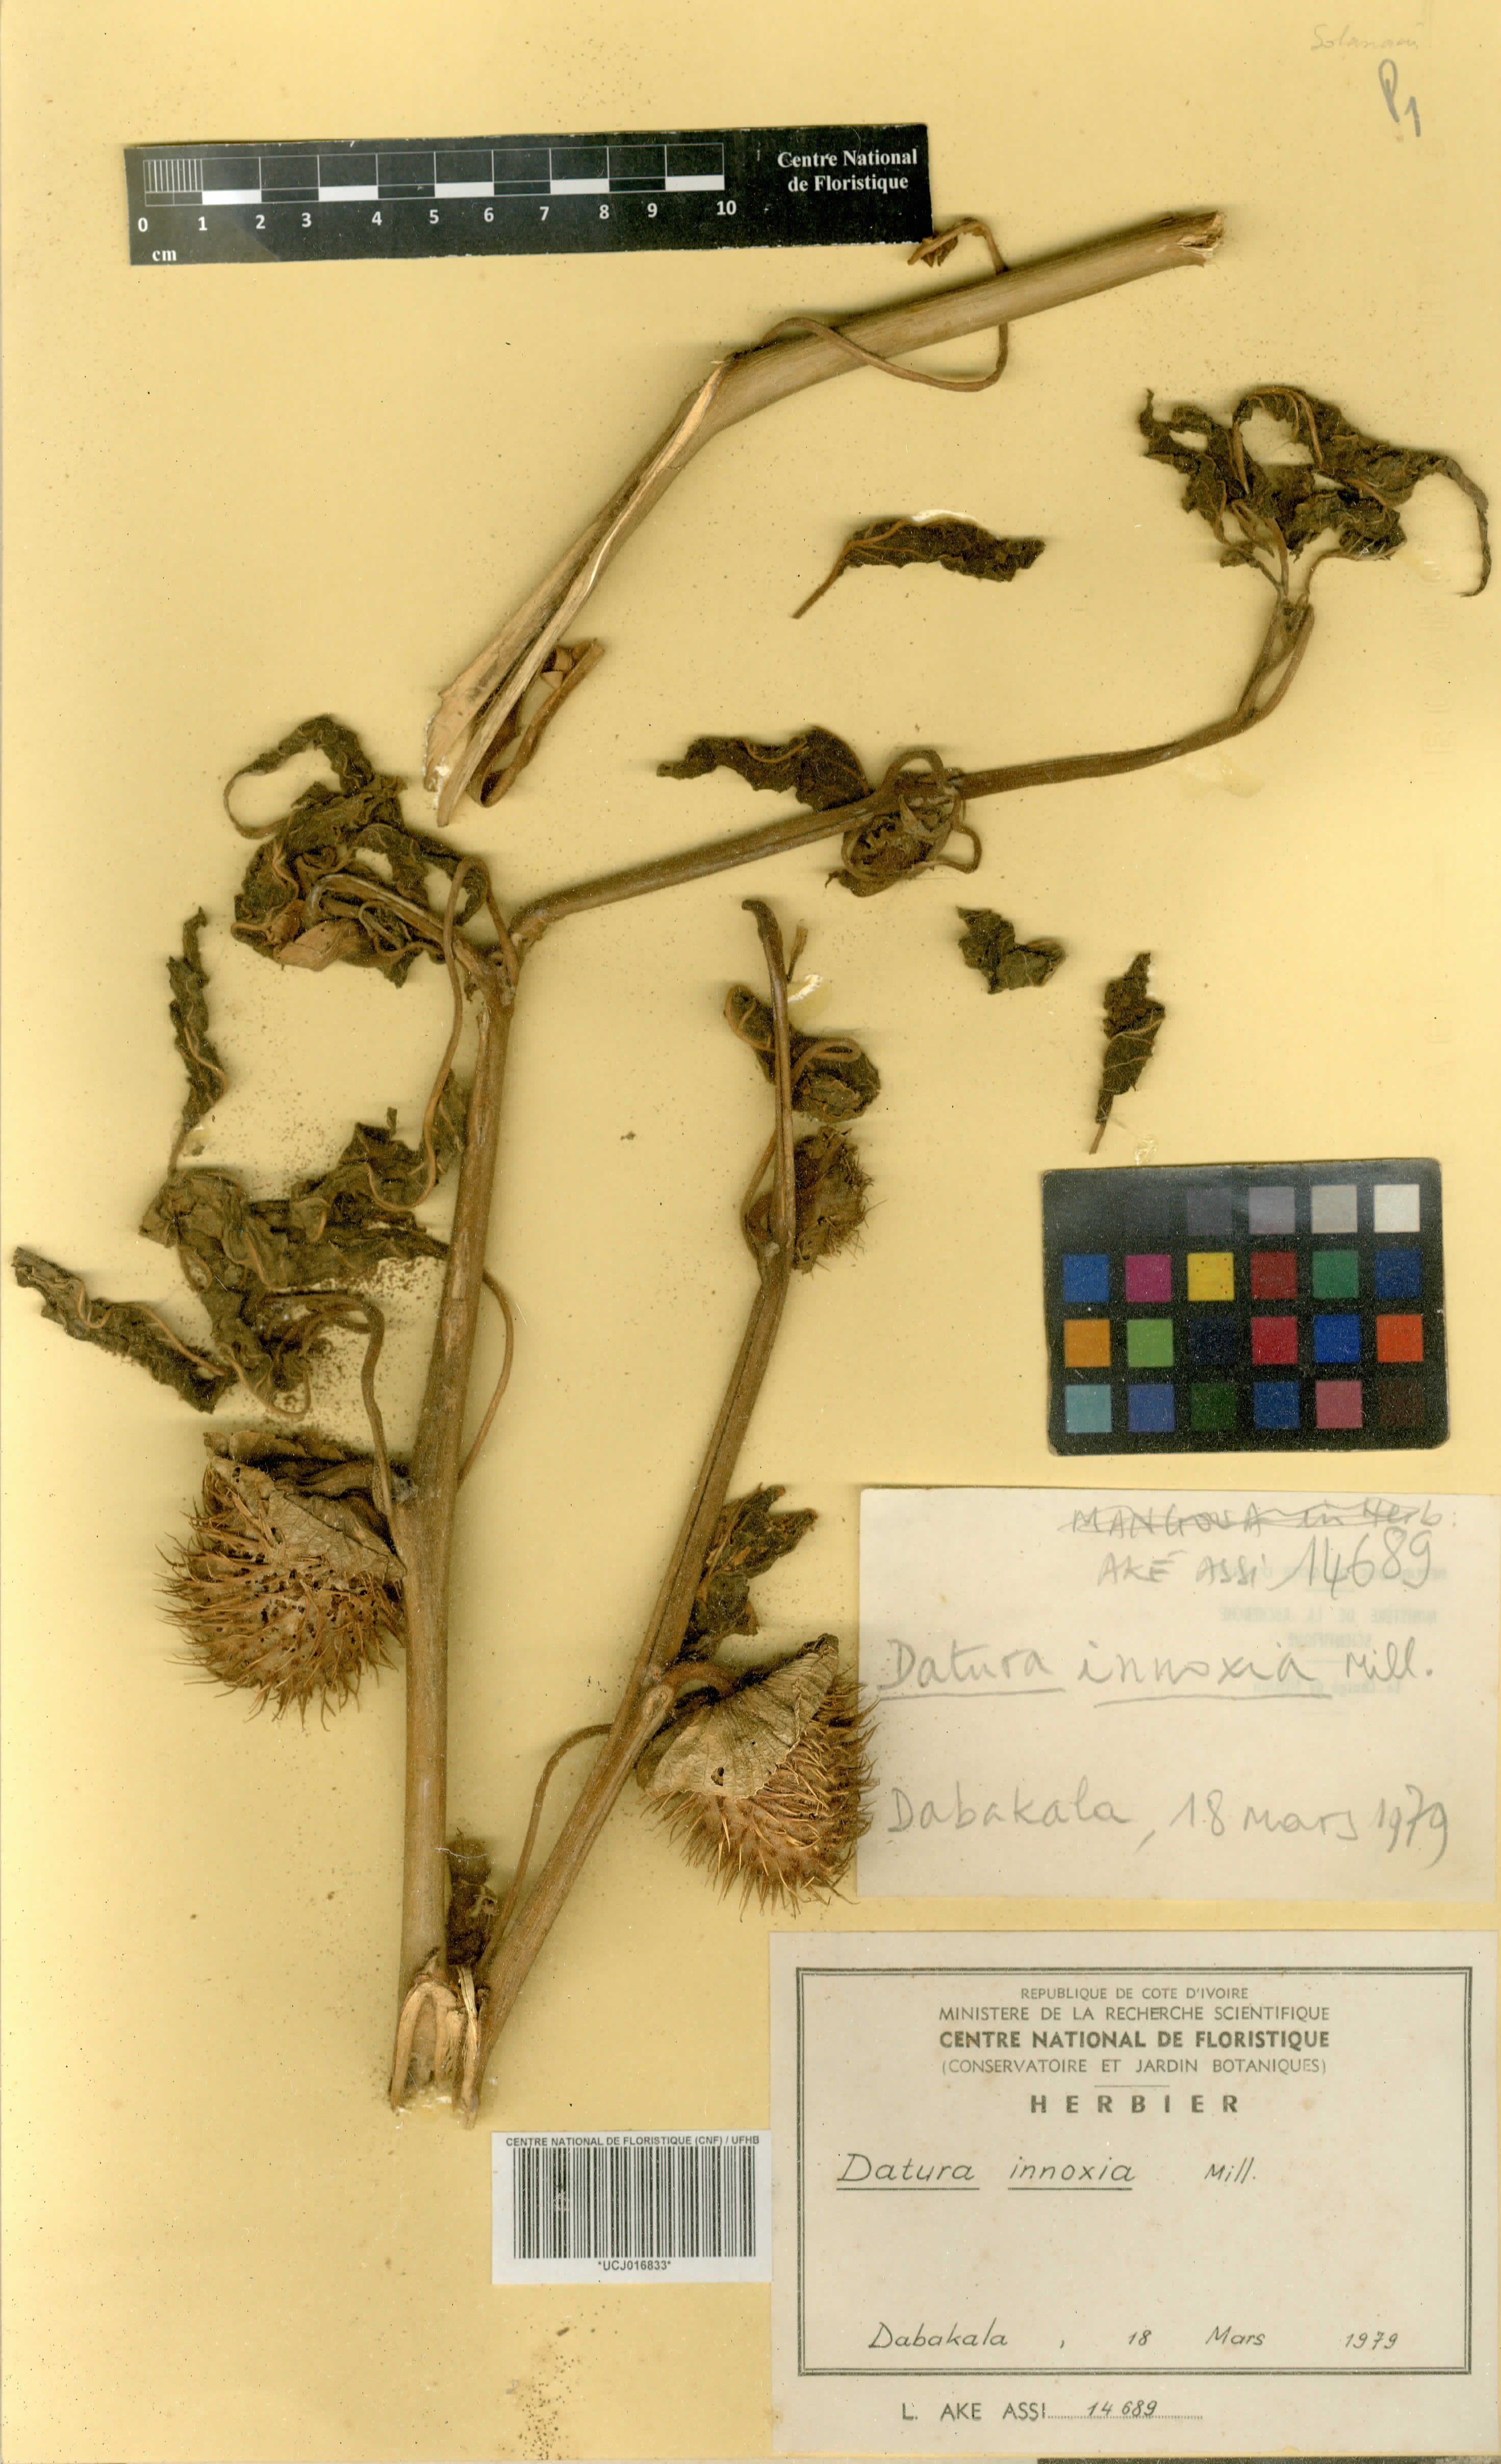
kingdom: Plantae
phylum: Tracheophyta
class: Magnoliopsida
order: Solanales
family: Solanaceae
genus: Datura
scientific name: Datura innoxia
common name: Downy thorn-apple
